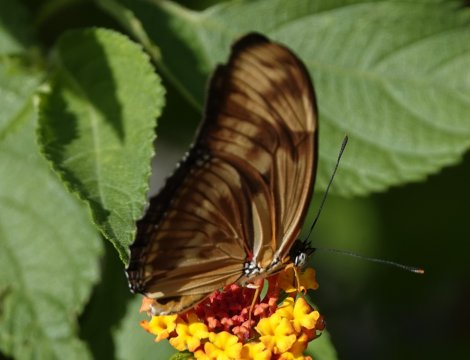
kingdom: Animalia
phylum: Arthropoda
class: Insecta
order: Lepidoptera
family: Nymphalidae
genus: Dryas
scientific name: Dryas iulia
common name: Julia
